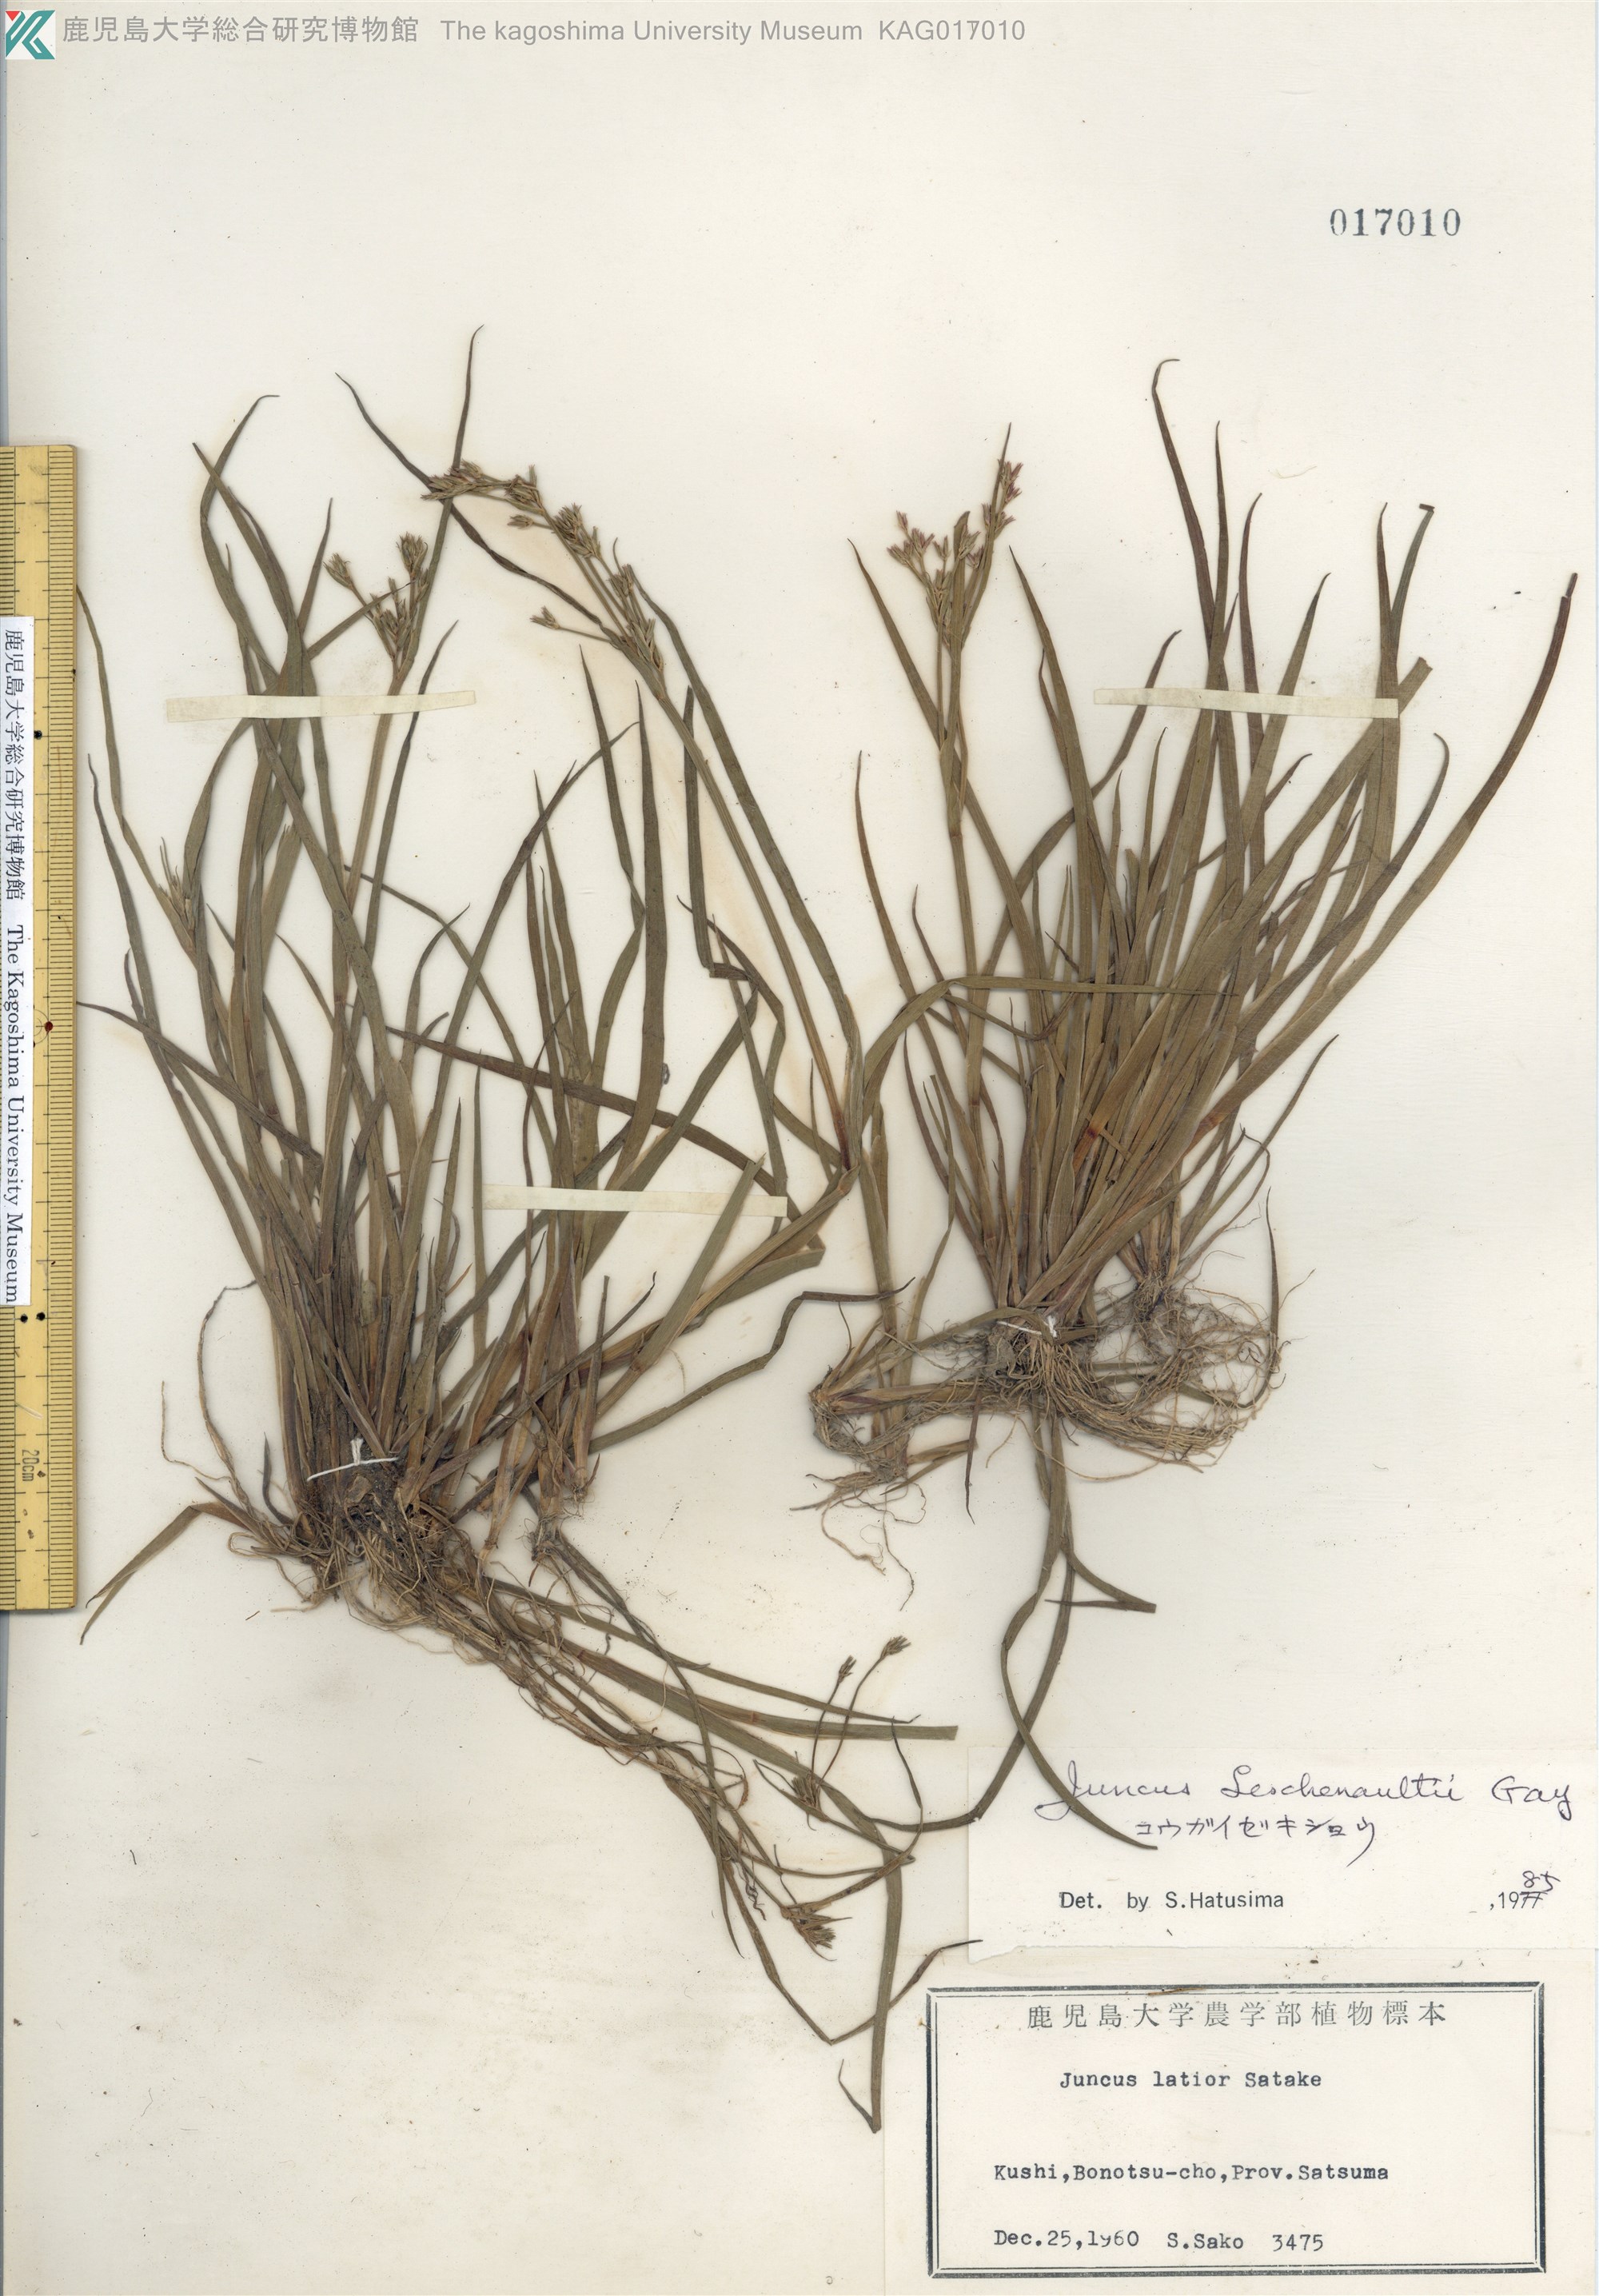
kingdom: Plantae
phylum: Tracheophyta
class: Liliopsida
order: Poales
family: Juncaceae
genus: Juncus
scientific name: Juncus prismatocarpus
